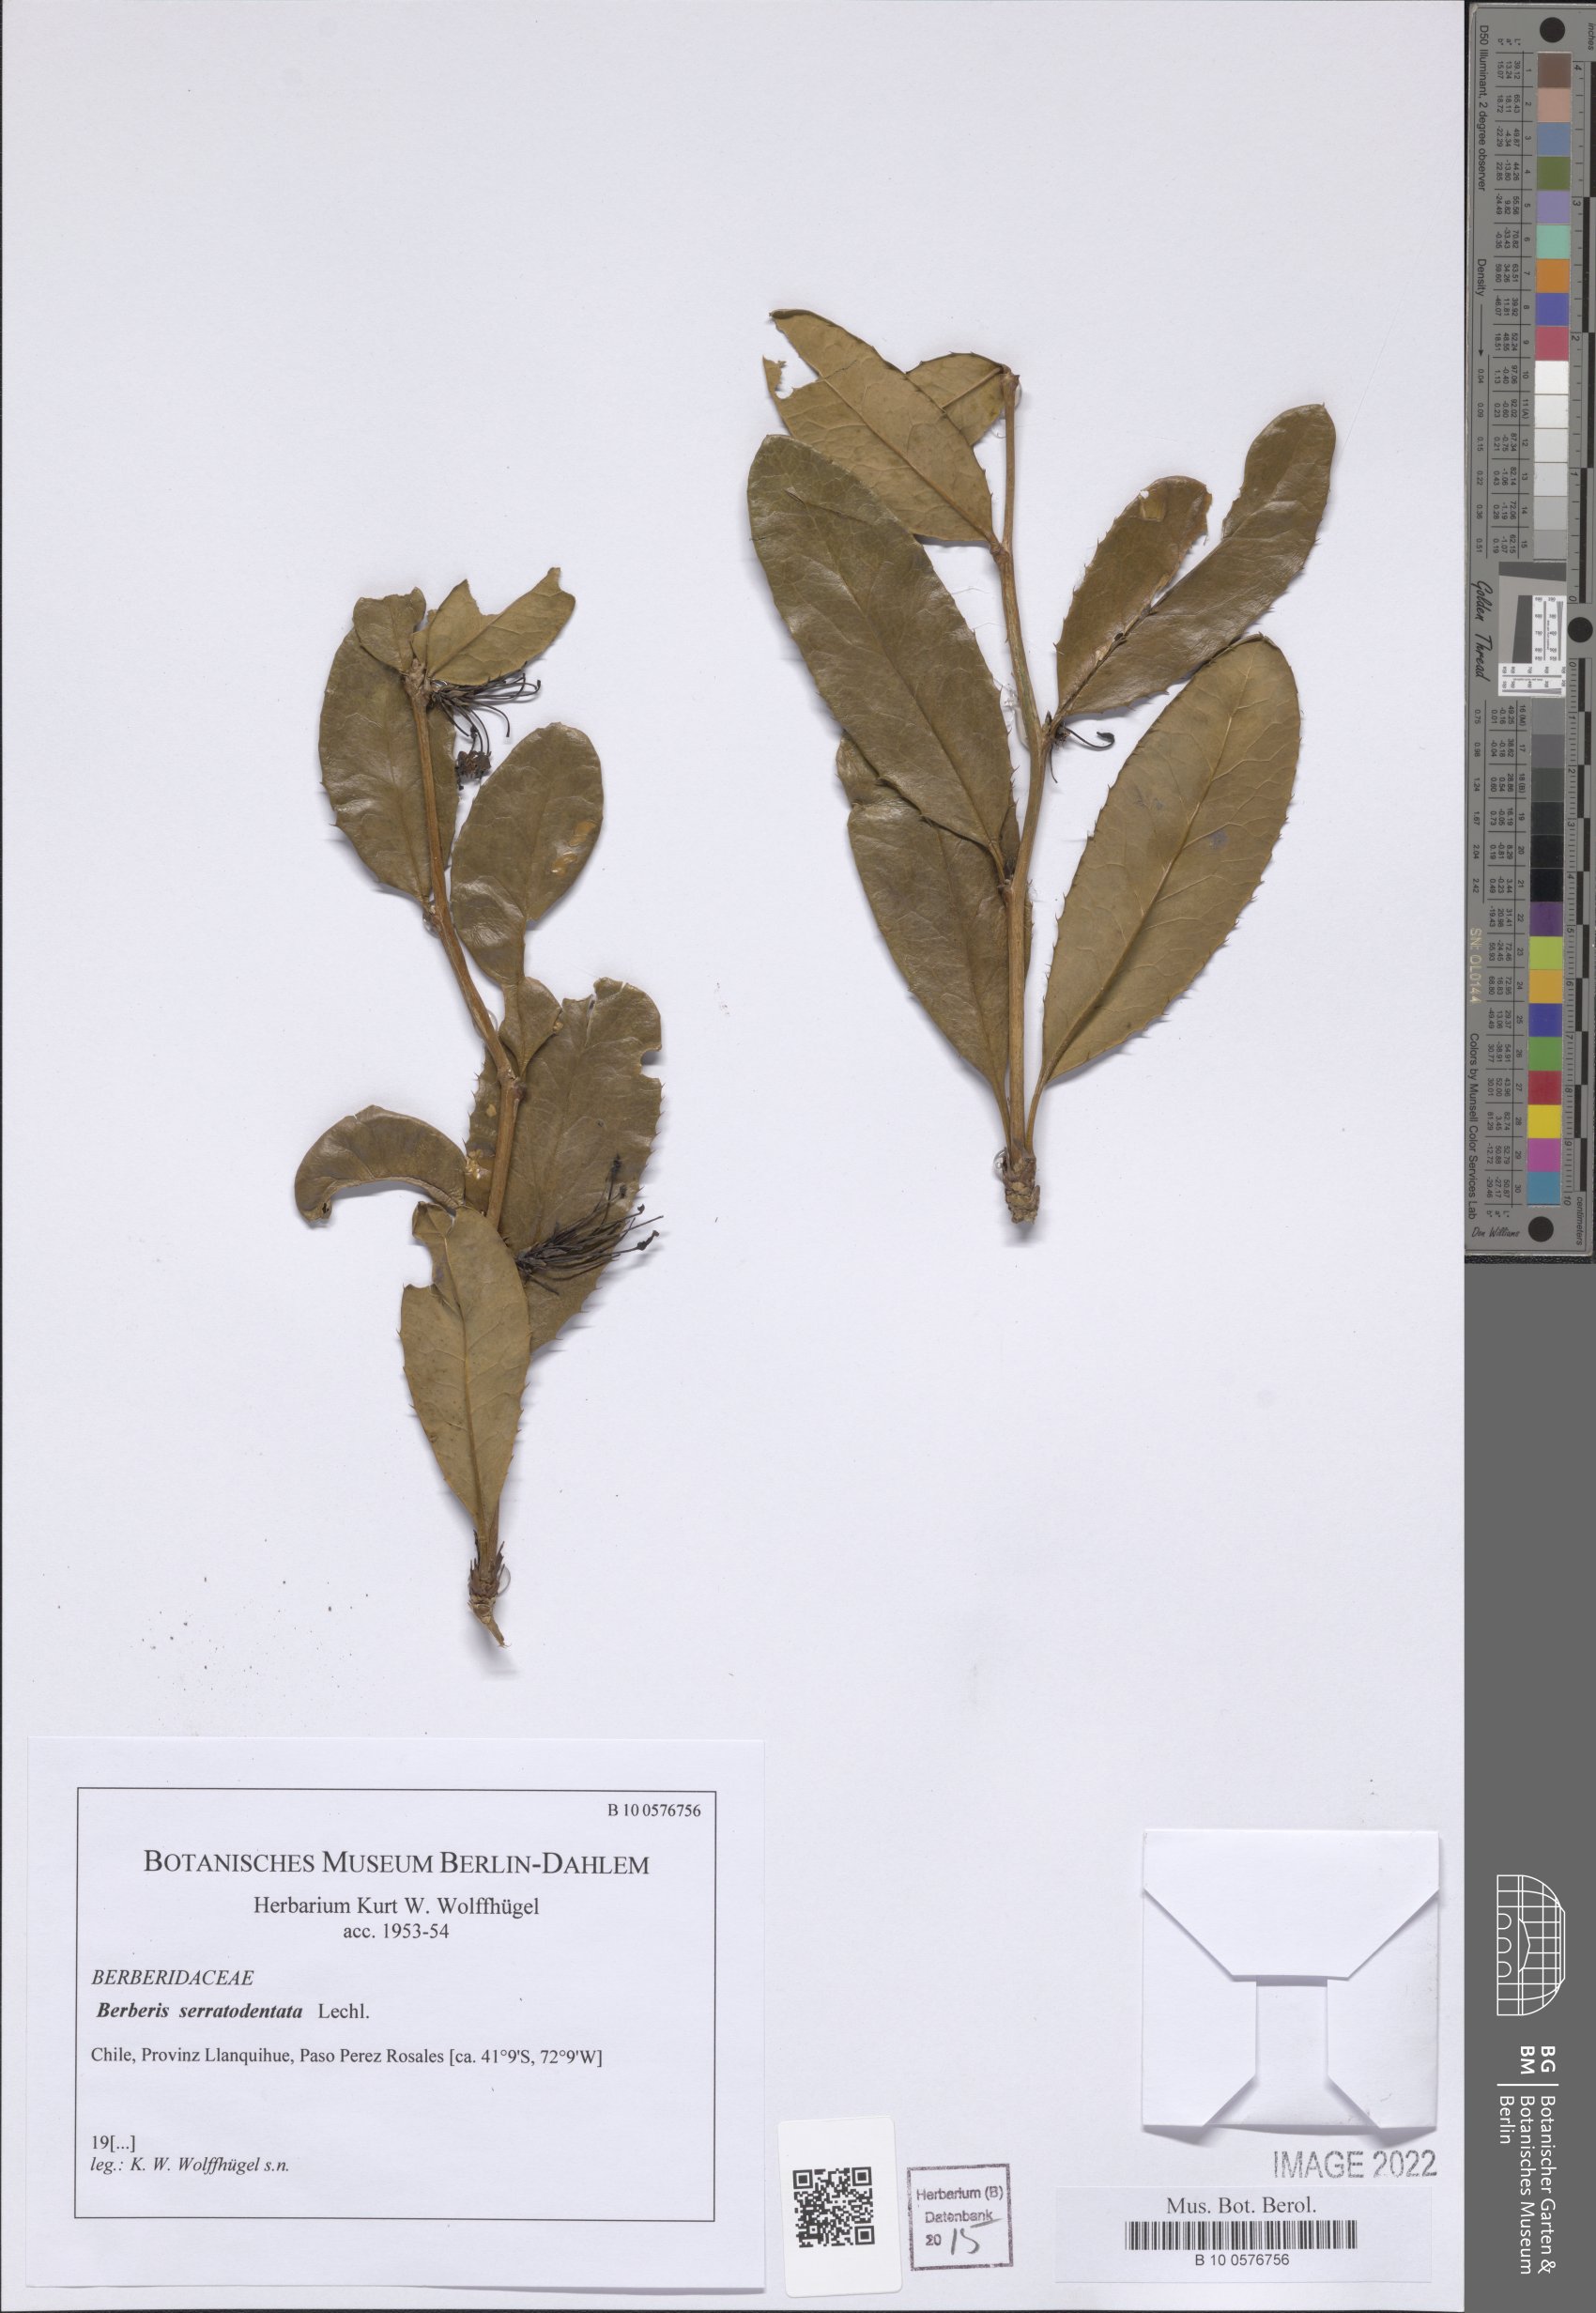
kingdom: Plantae
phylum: Tracheophyta
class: Magnoliopsida
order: Ranunculales
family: Berberidaceae
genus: Berberis
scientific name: Berberis serratodentata
